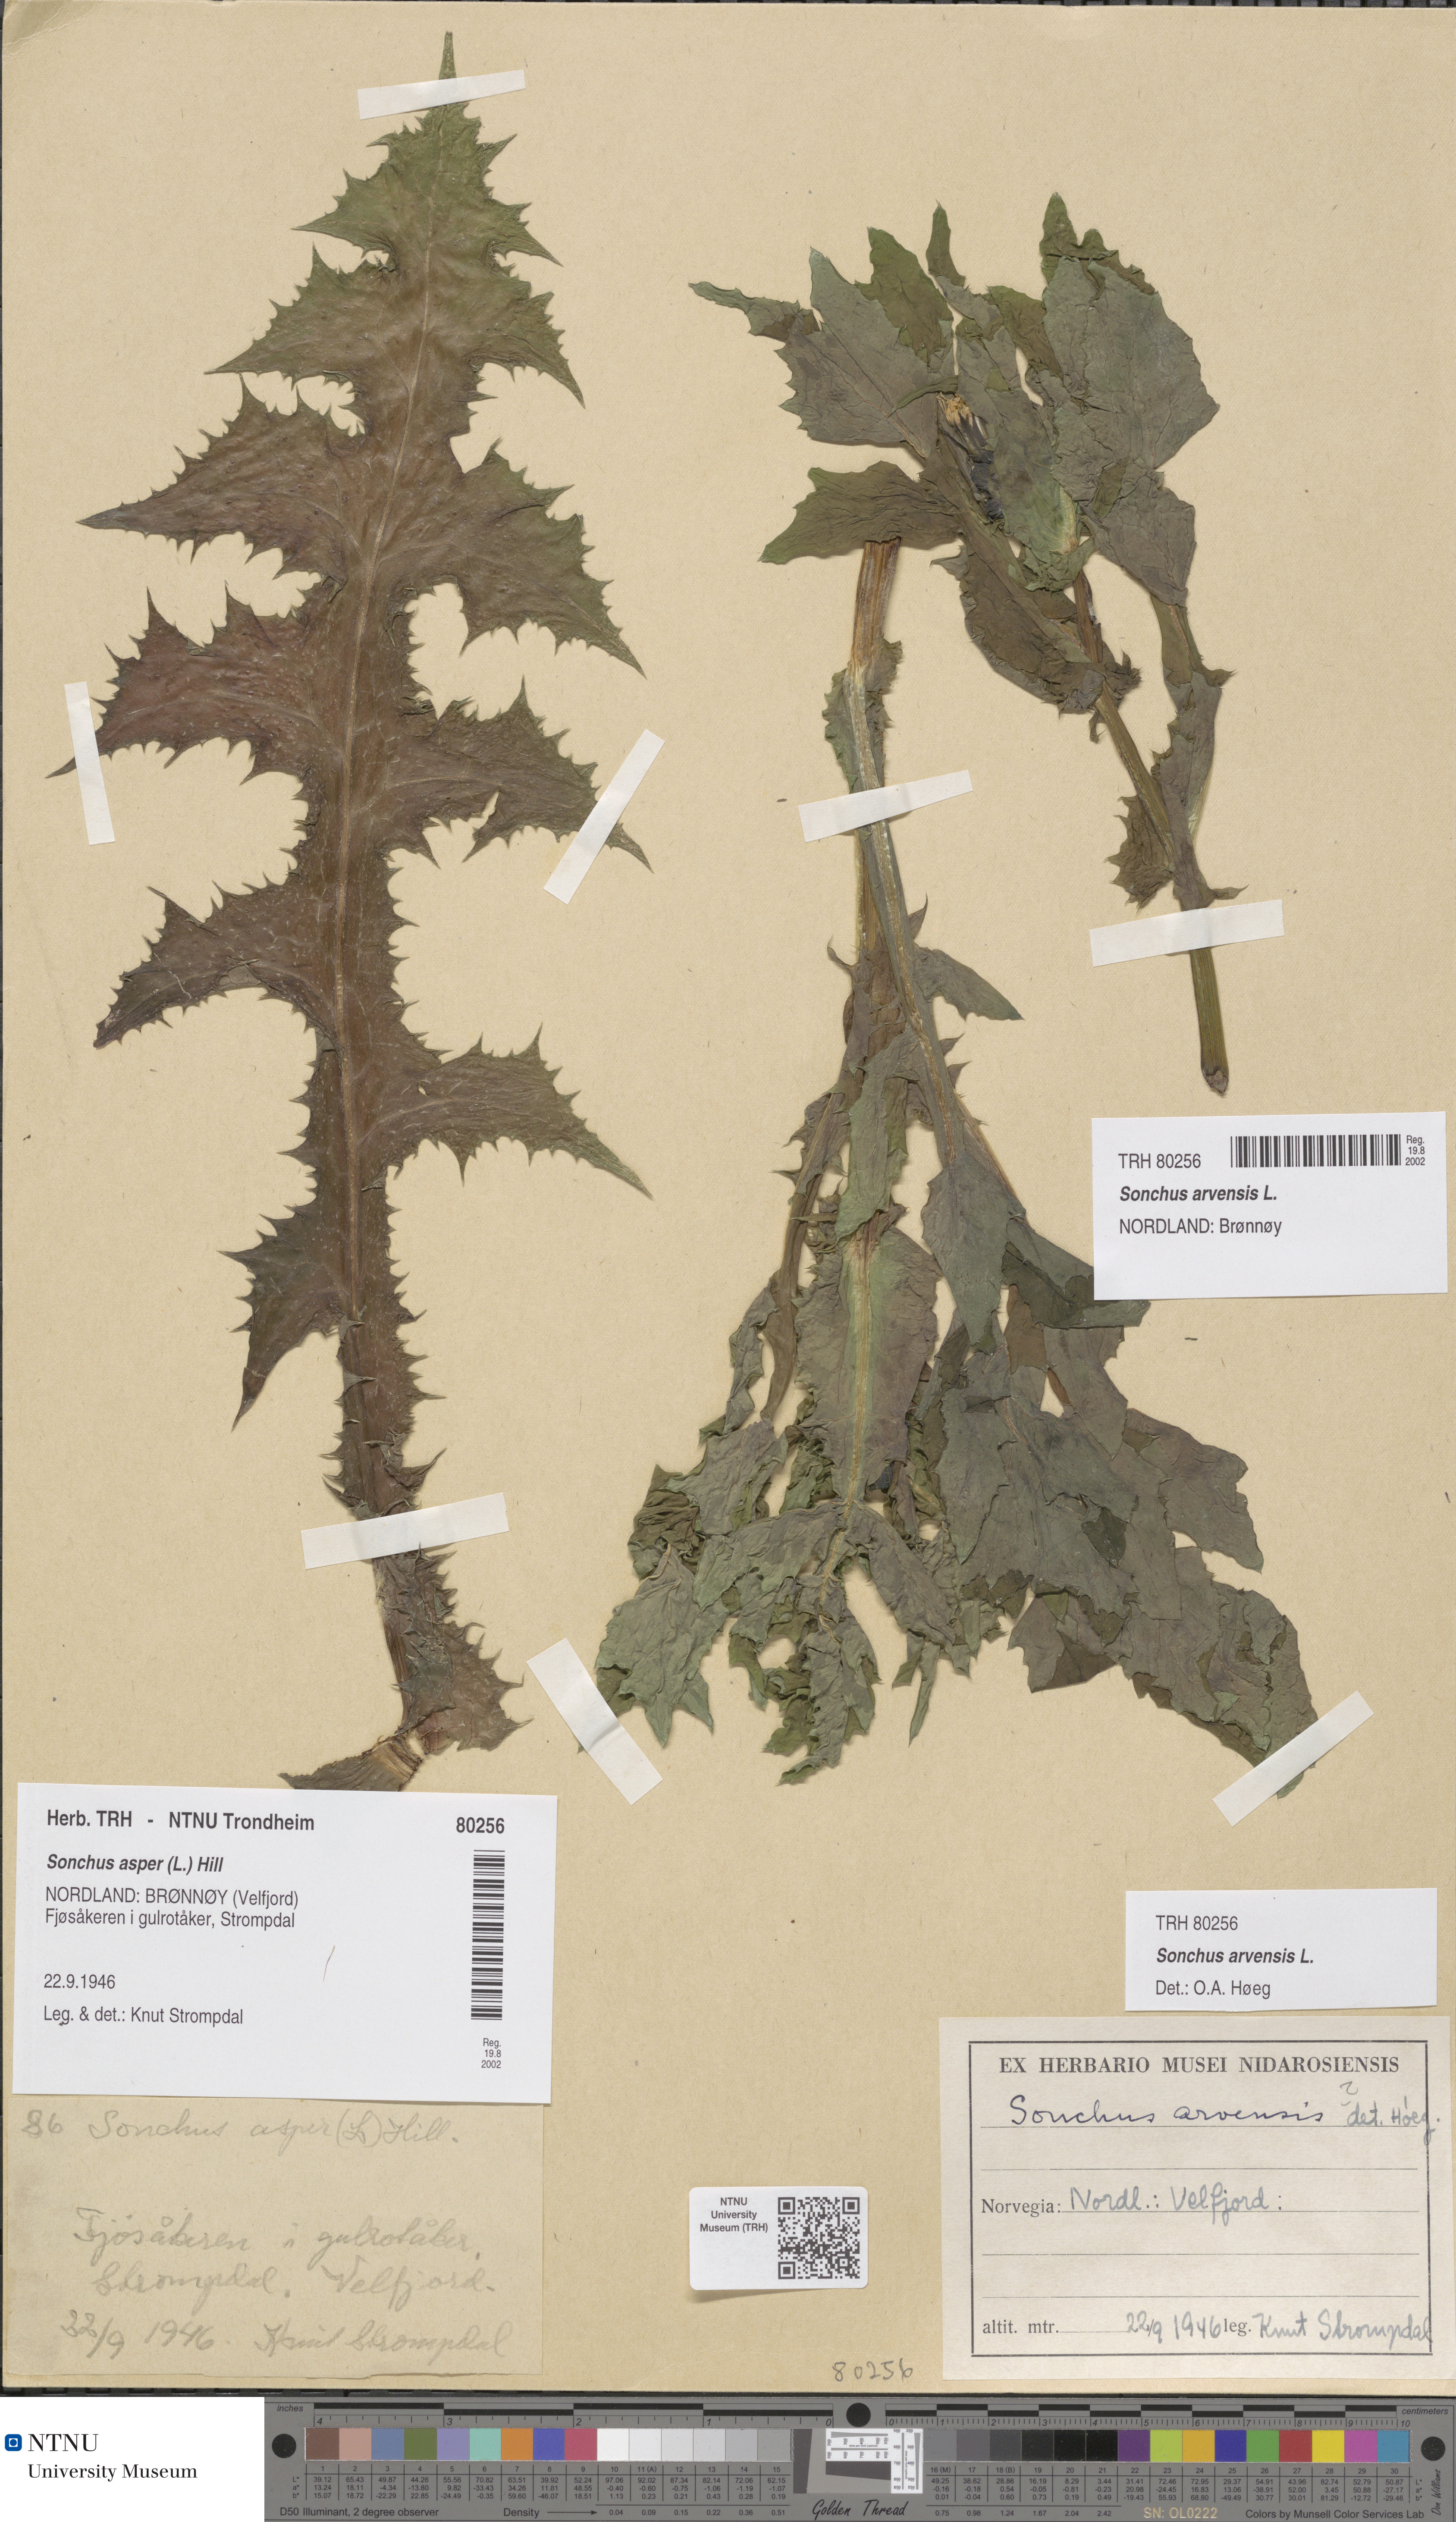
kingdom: Plantae
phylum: Tracheophyta
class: Magnoliopsida
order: Asterales
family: Asteraceae
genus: Sonchus
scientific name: Sonchus arvensis
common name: Perennial sow-thistle
